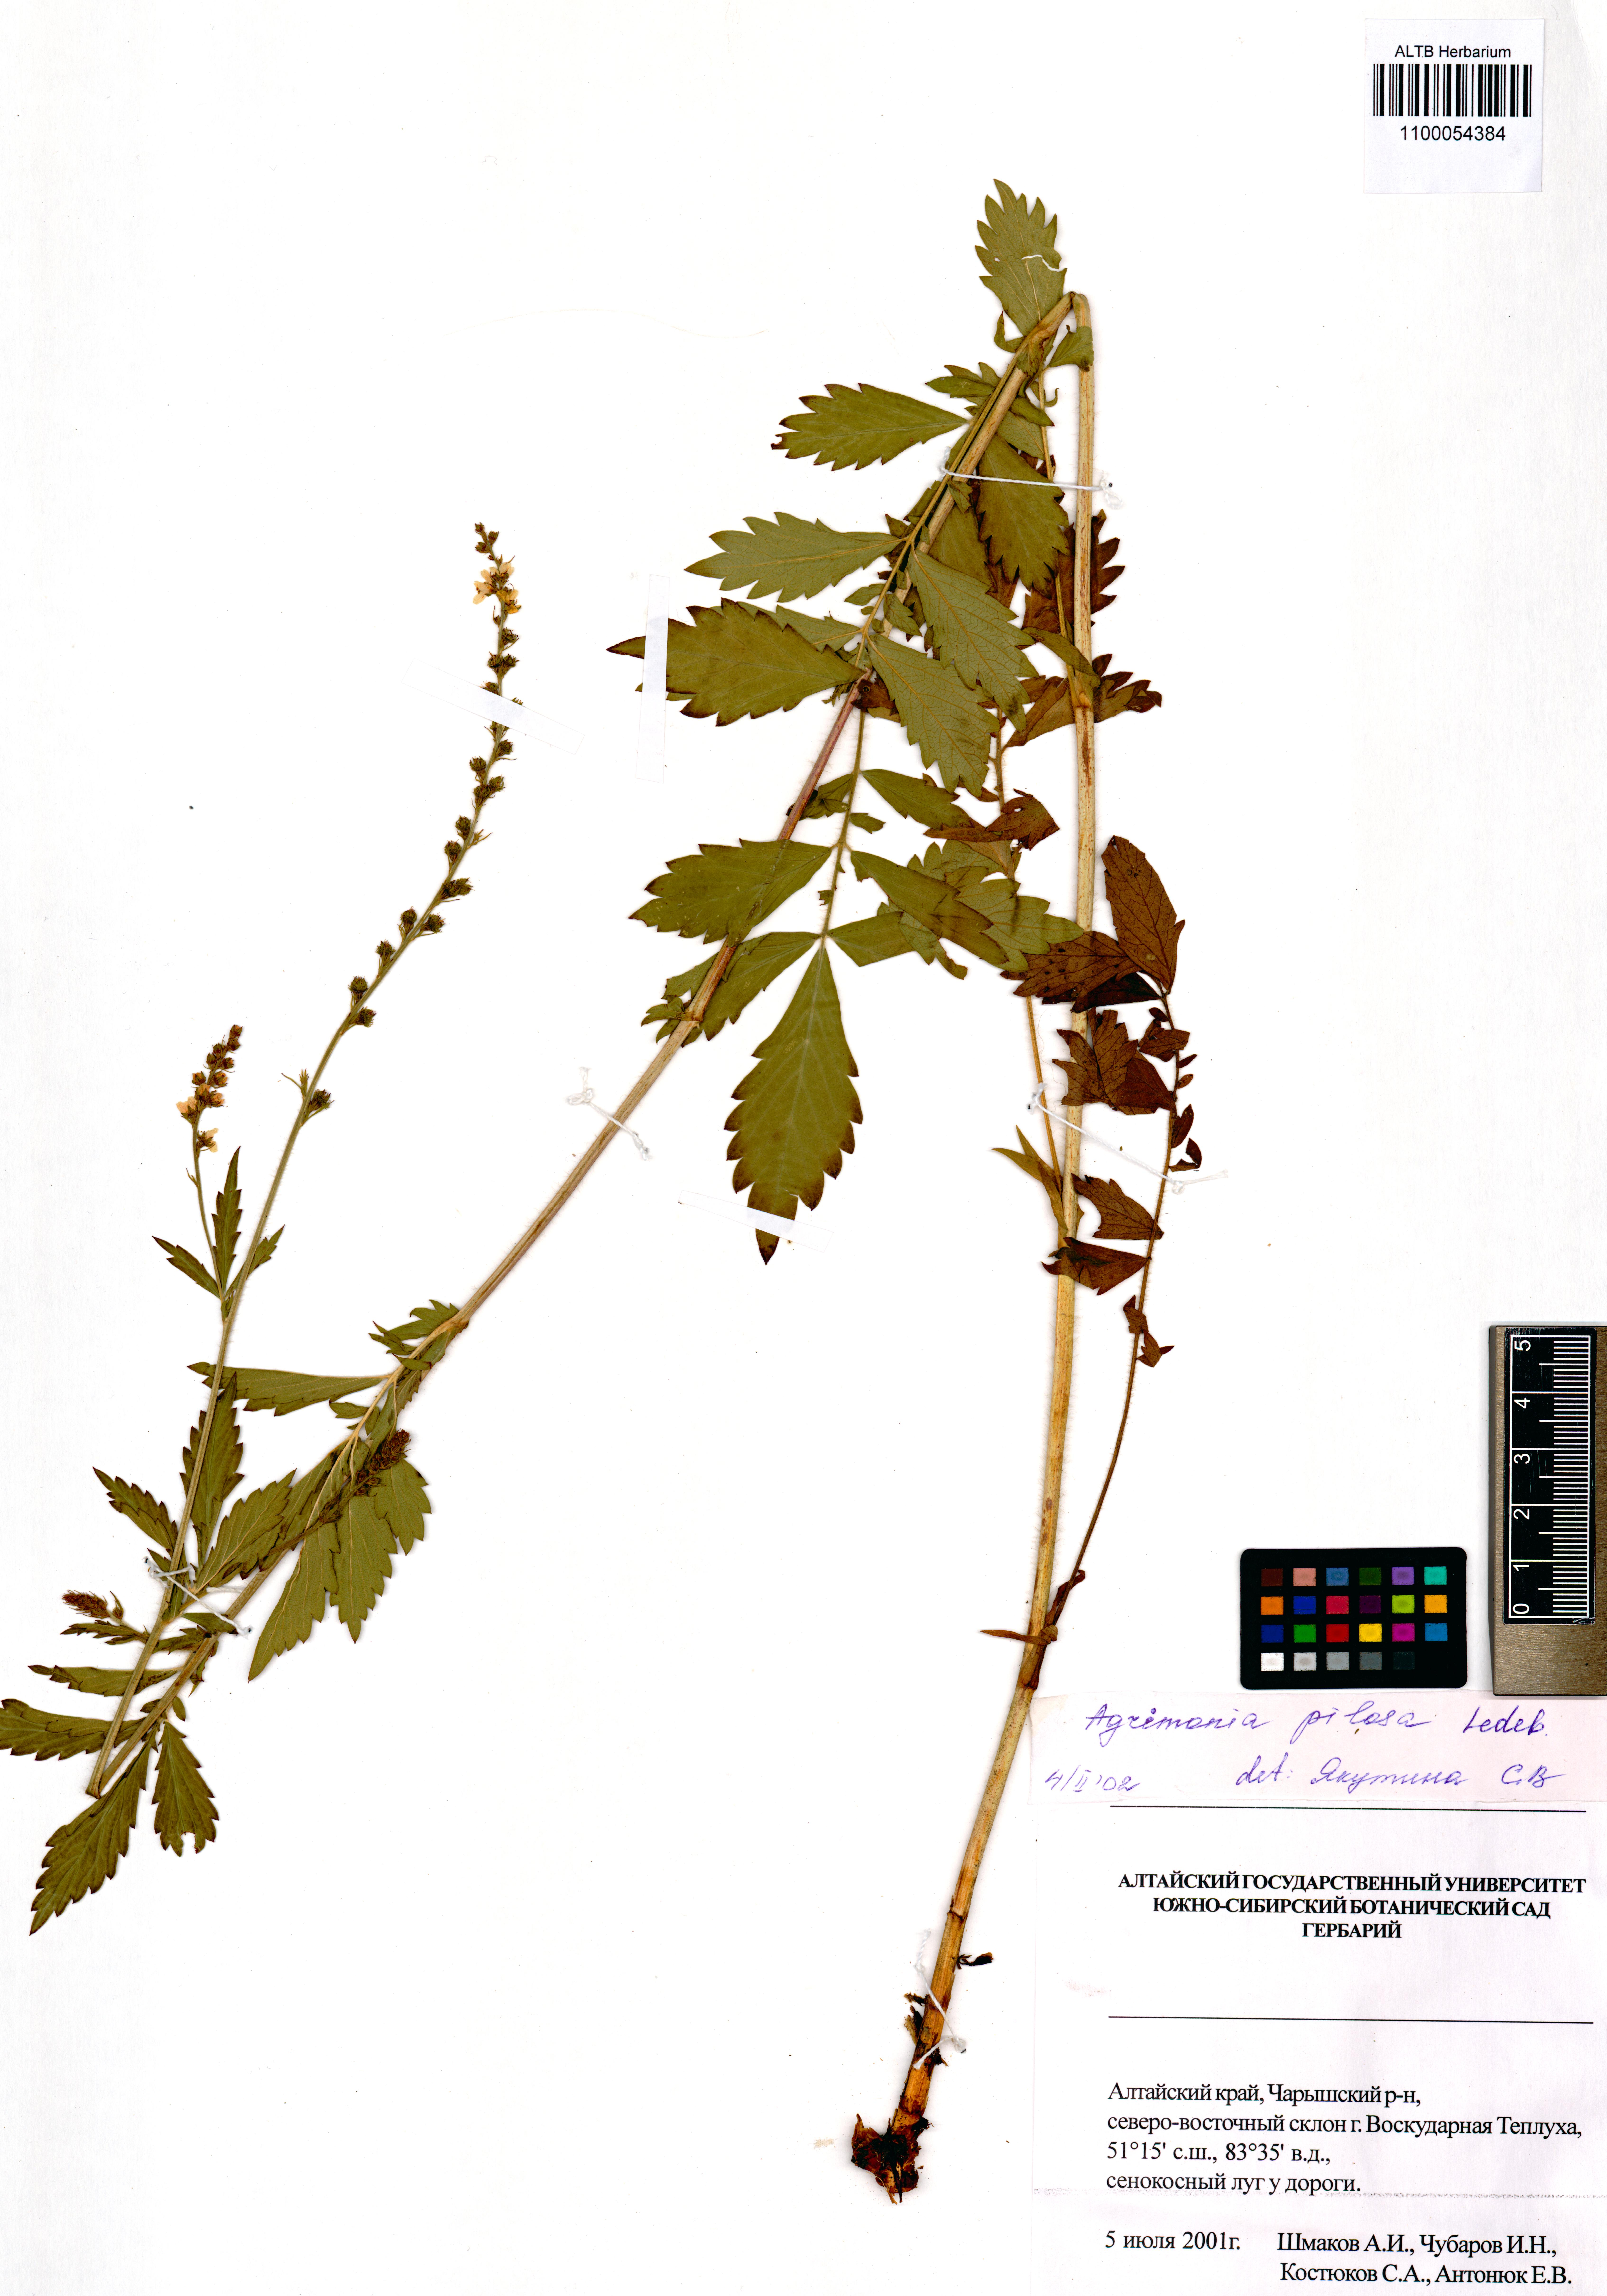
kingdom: Plantae
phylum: Tracheophyta
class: Magnoliopsida
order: Rosales
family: Rosaceae
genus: Agrimonia
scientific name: Agrimonia pilosa
